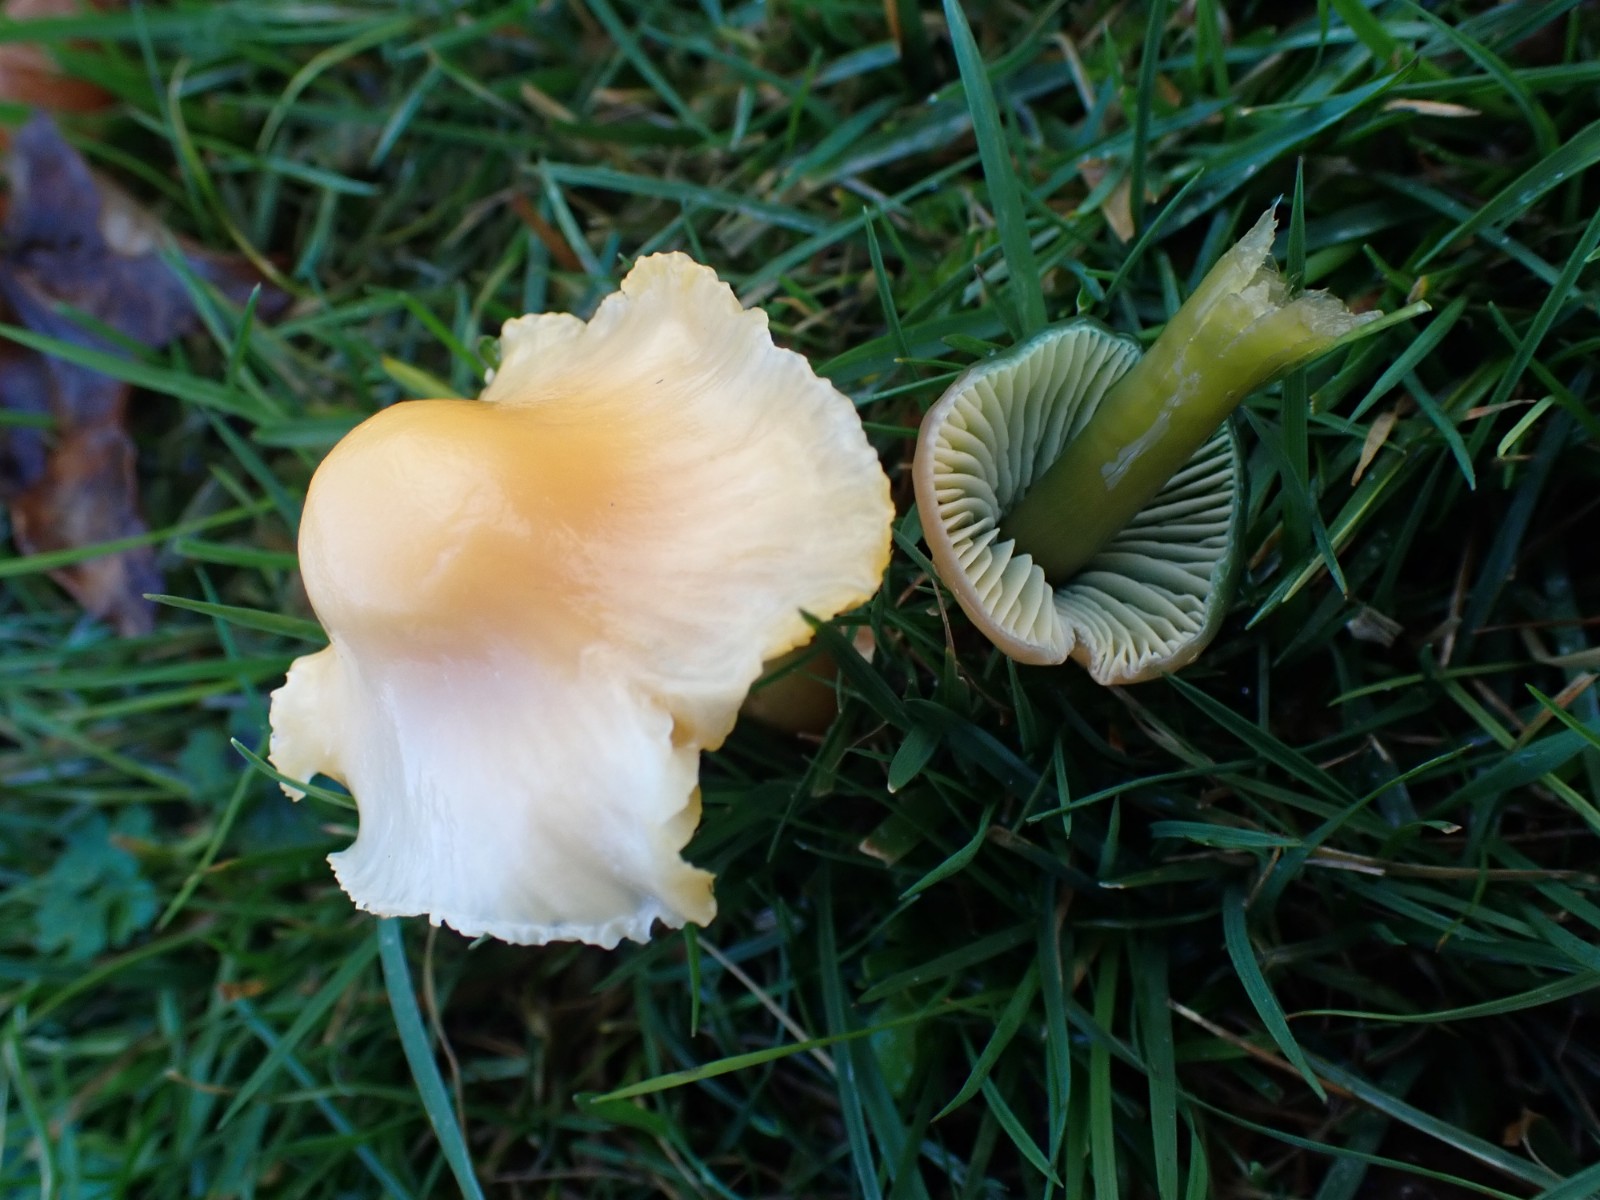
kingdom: Fungi
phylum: Basidiomycota
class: Agaricomycetes
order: Agaricales
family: Hygrophoraceae
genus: Gliophorus
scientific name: Gliophorus psittacinus
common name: papegøje-vokshat
